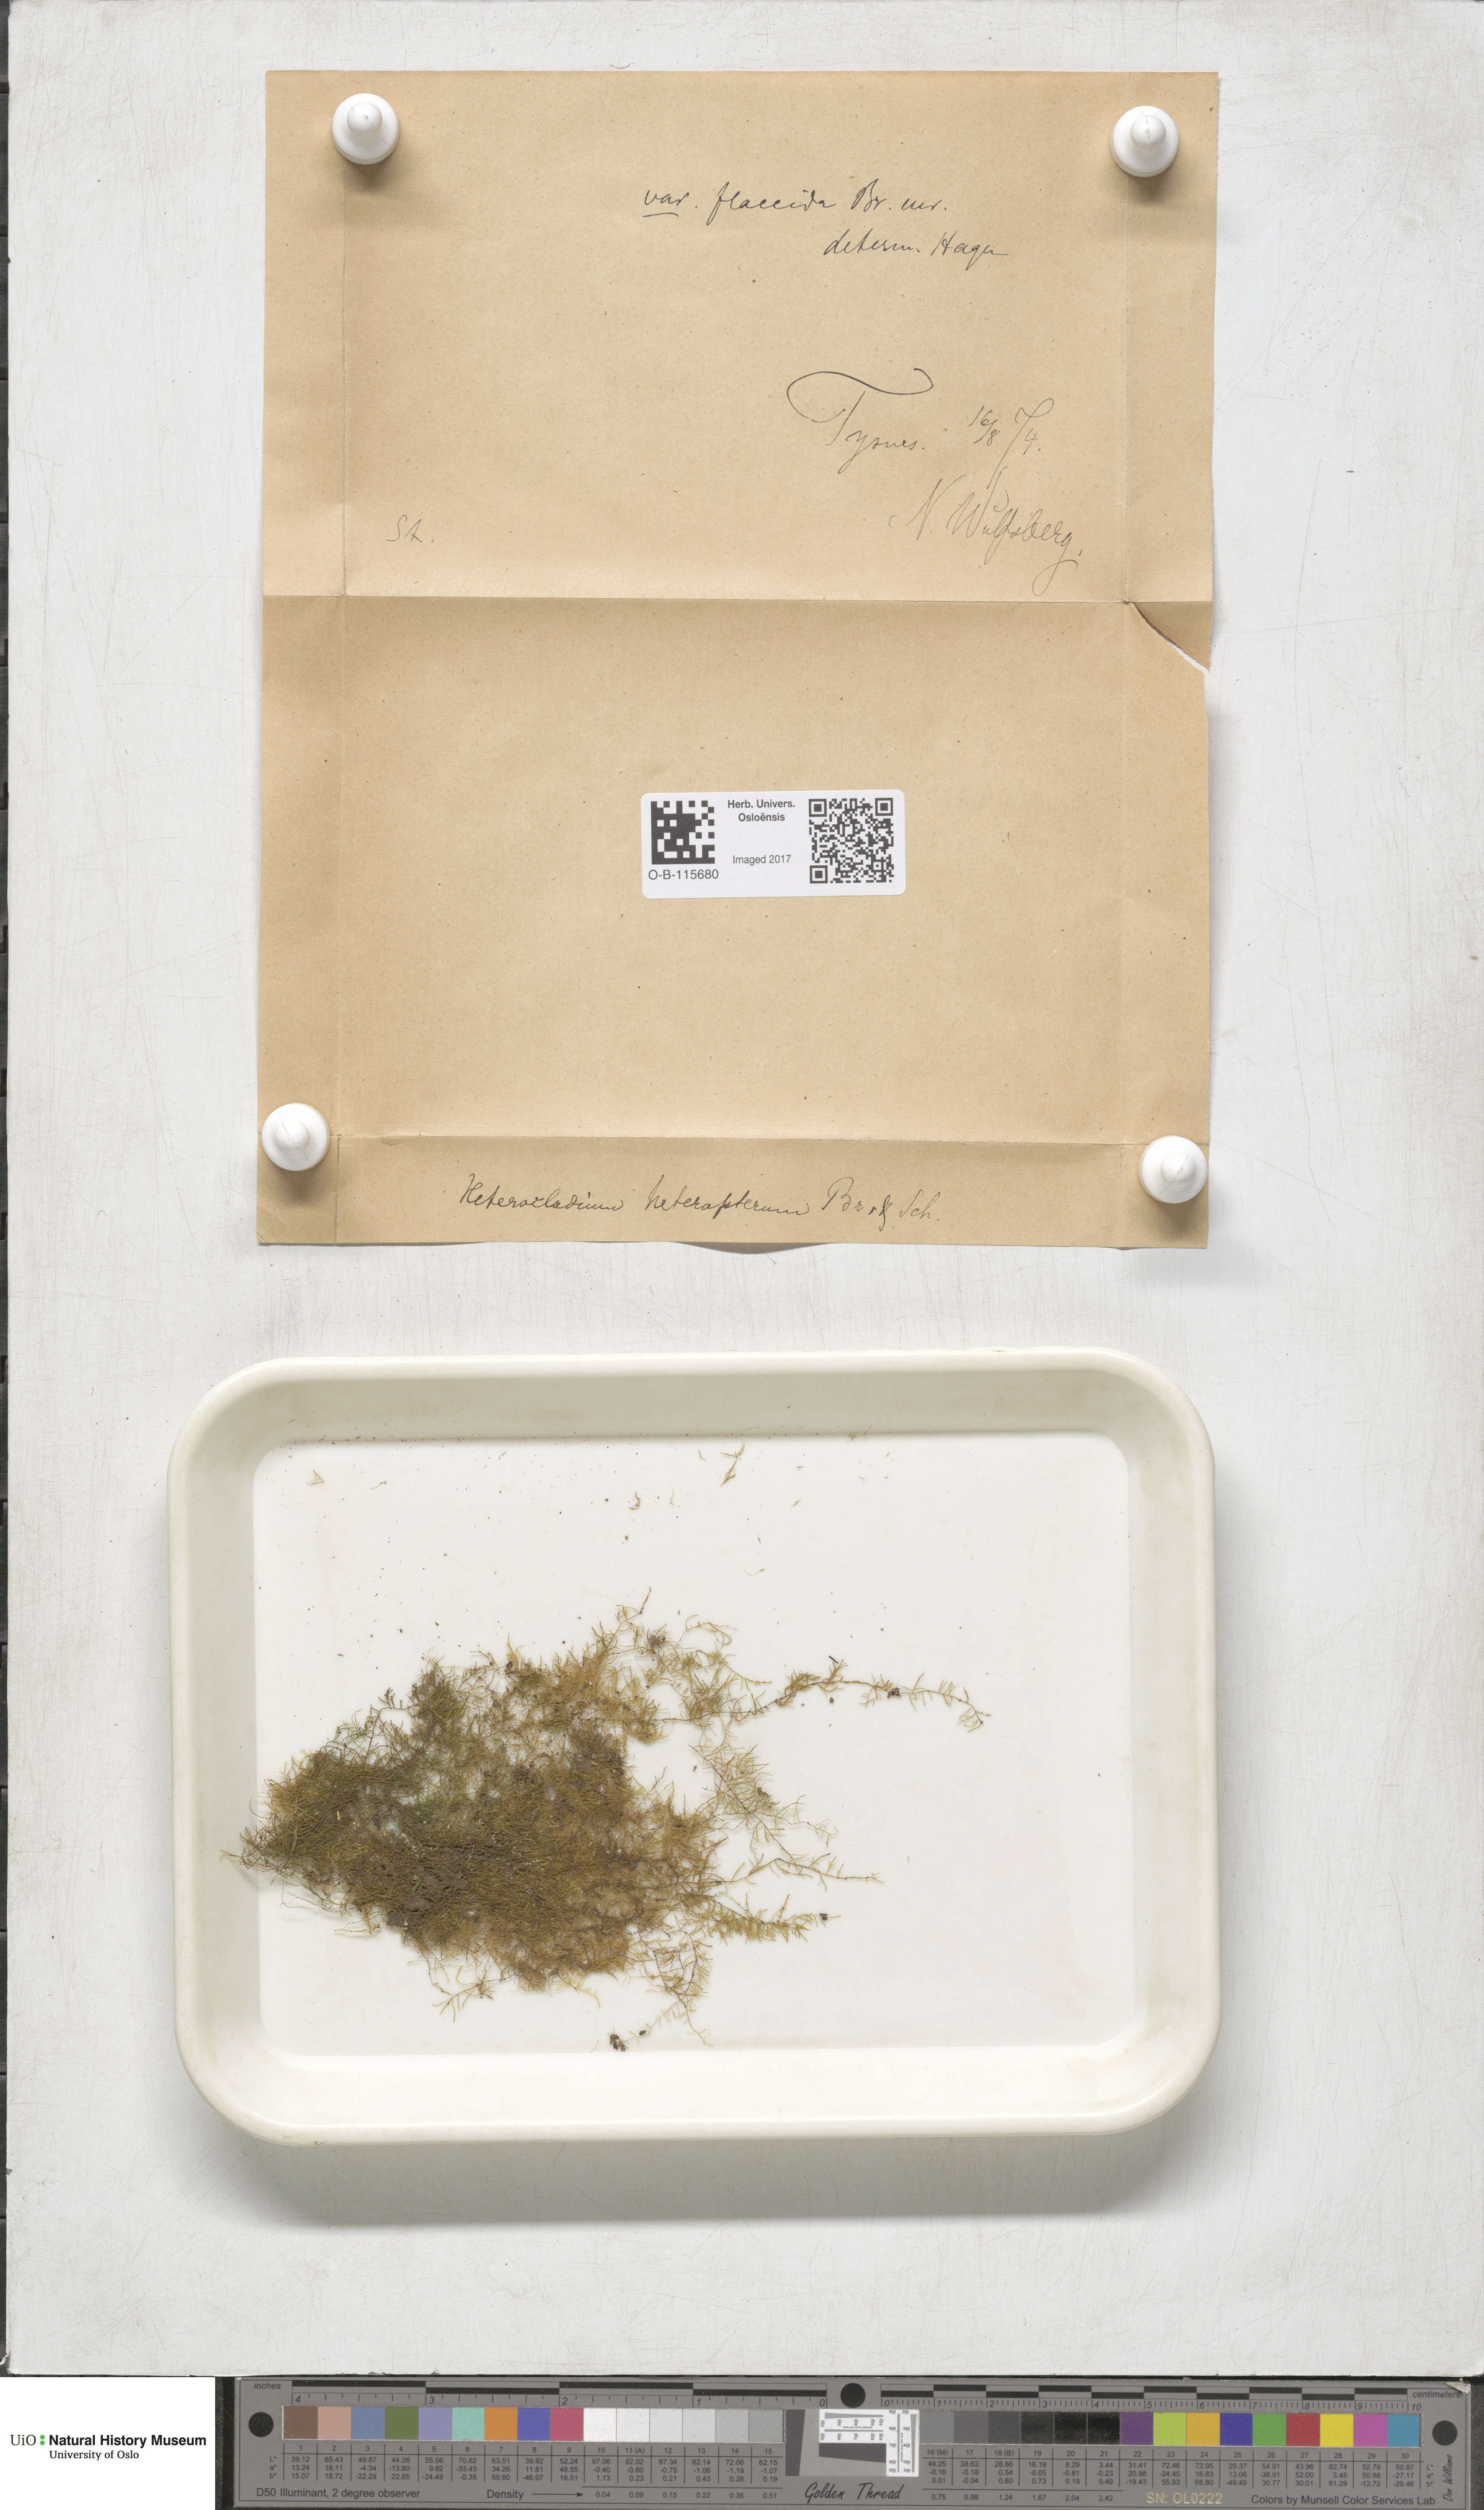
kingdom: Plantae
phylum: Bryophyta
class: Bryopsida
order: Hypnales
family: Lembophyllaceae
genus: Heterocladium
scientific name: Heterocladium heteropterum
